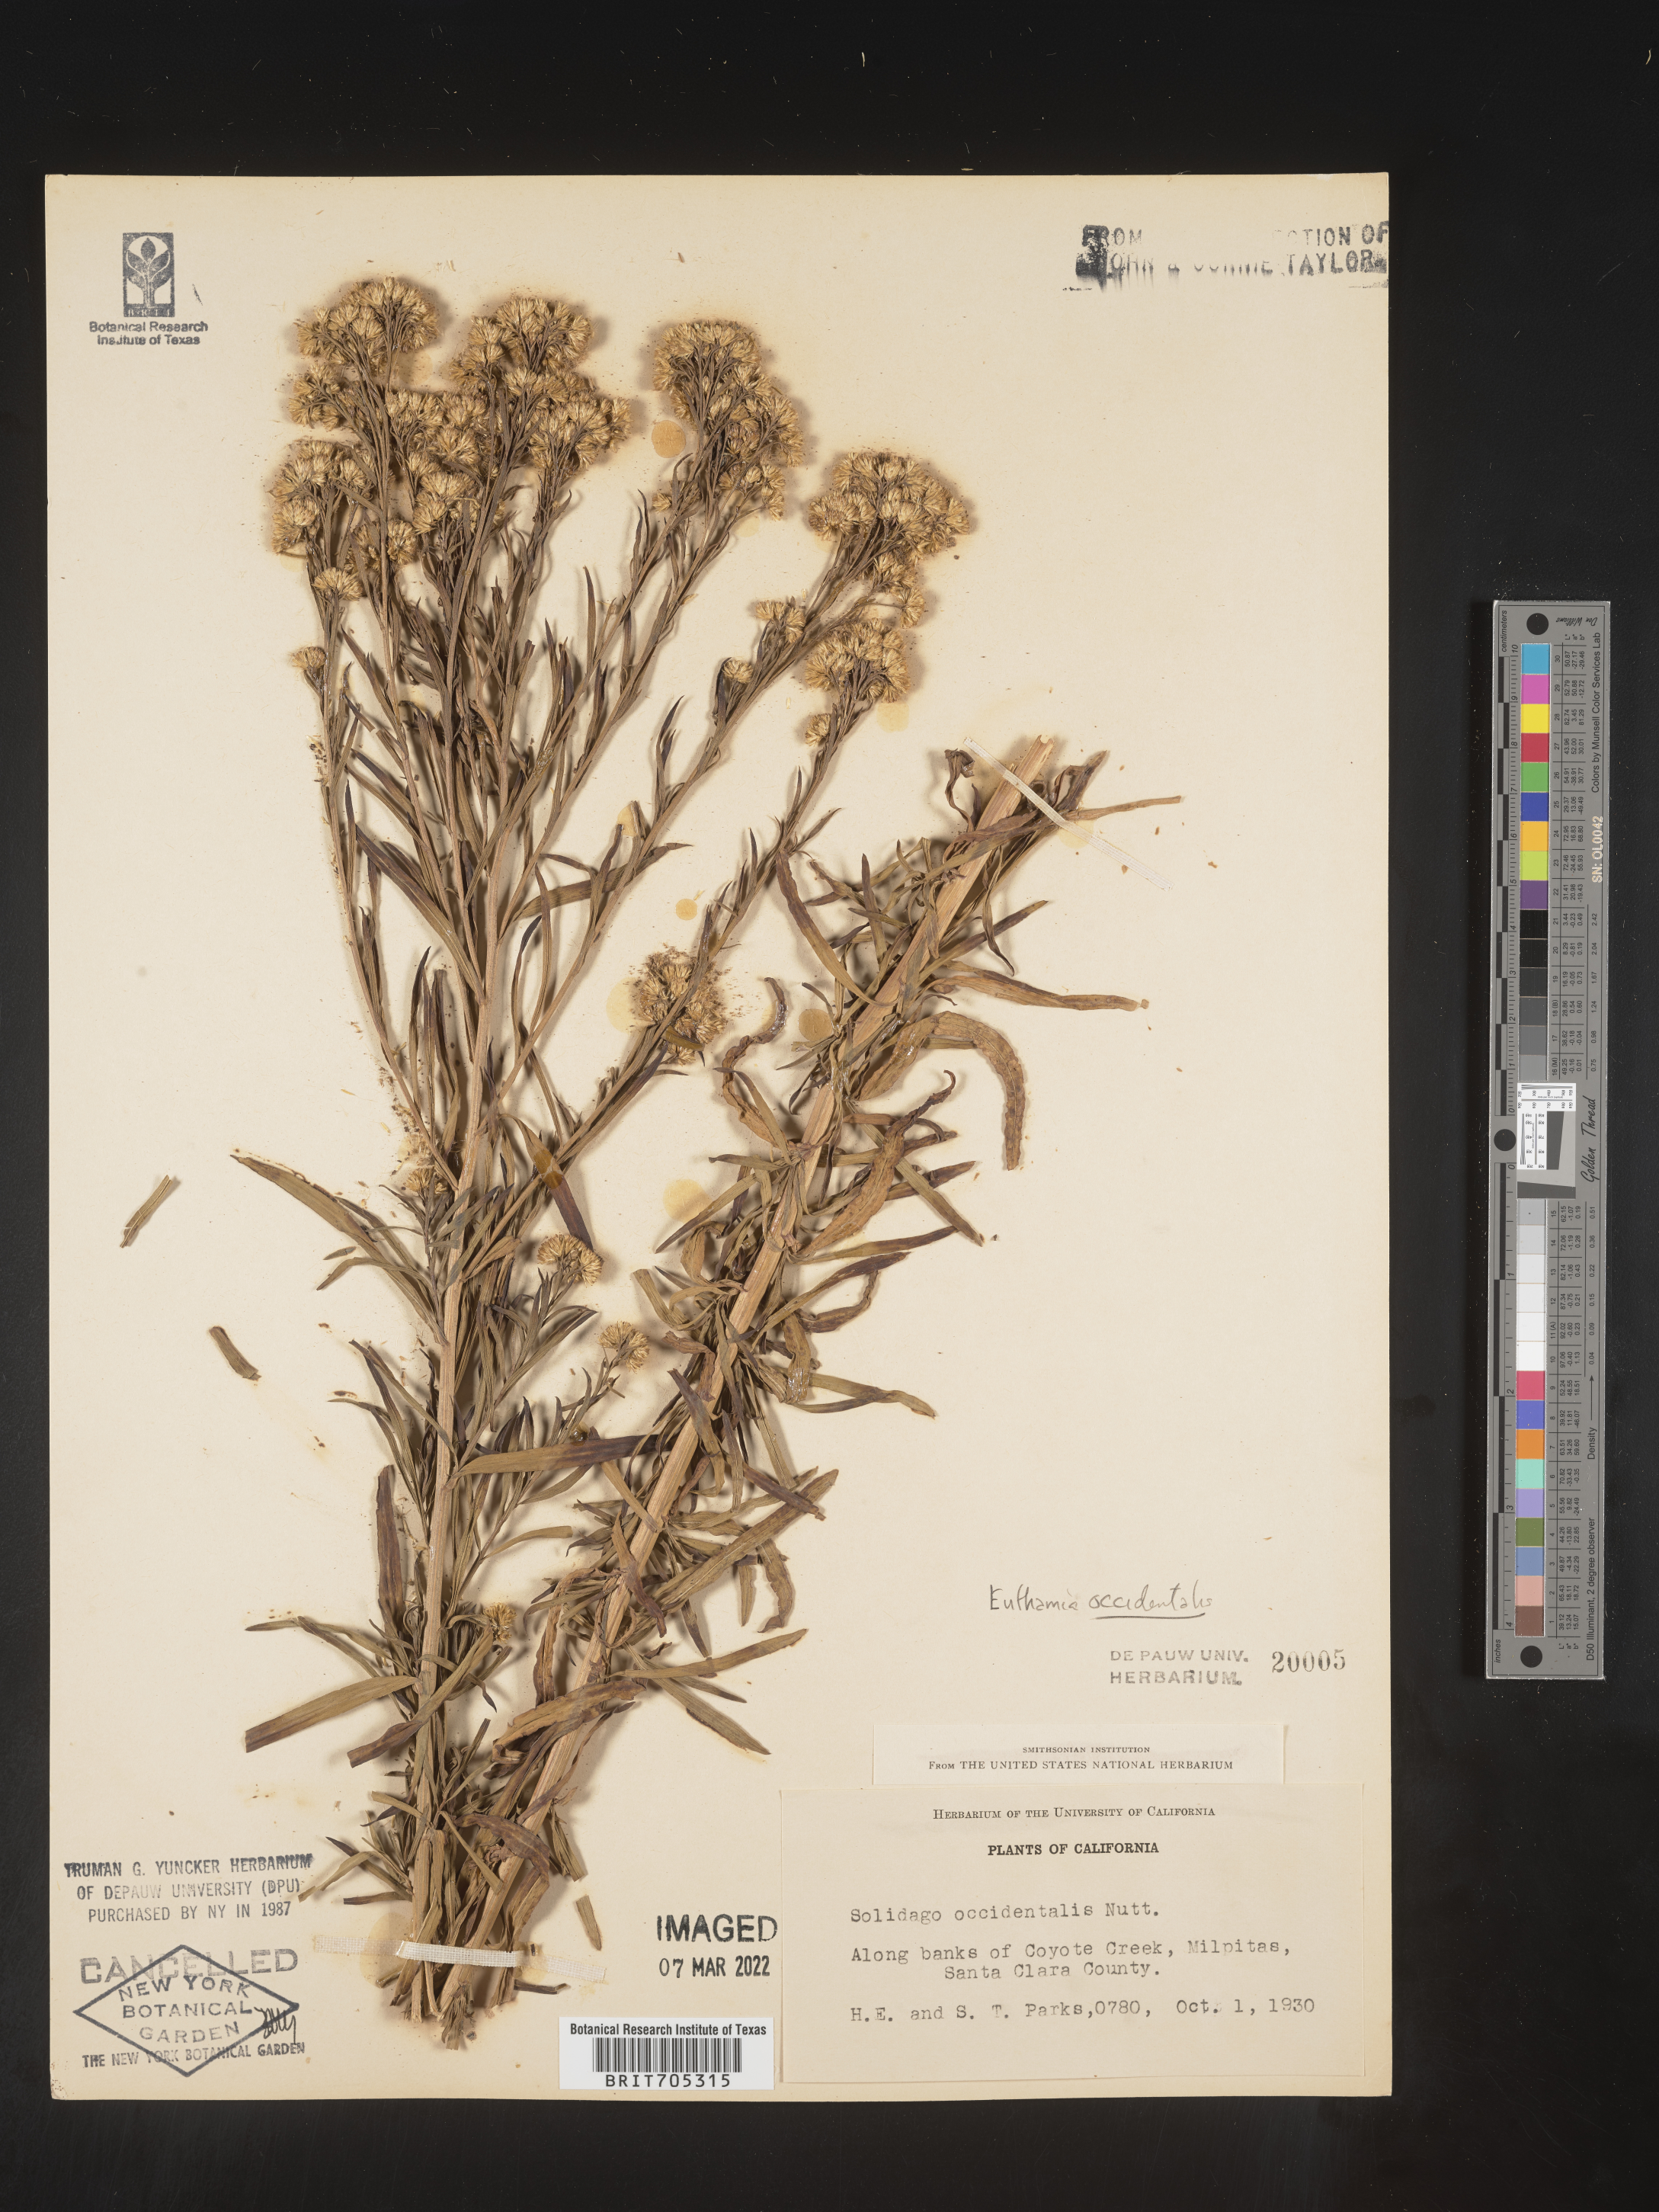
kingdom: Plantae
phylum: Tracheophyta
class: Magnoliopsida
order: Asterales
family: Asteraceae
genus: Euthamia
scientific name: Euthamia occidentalis
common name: Western goldentop
